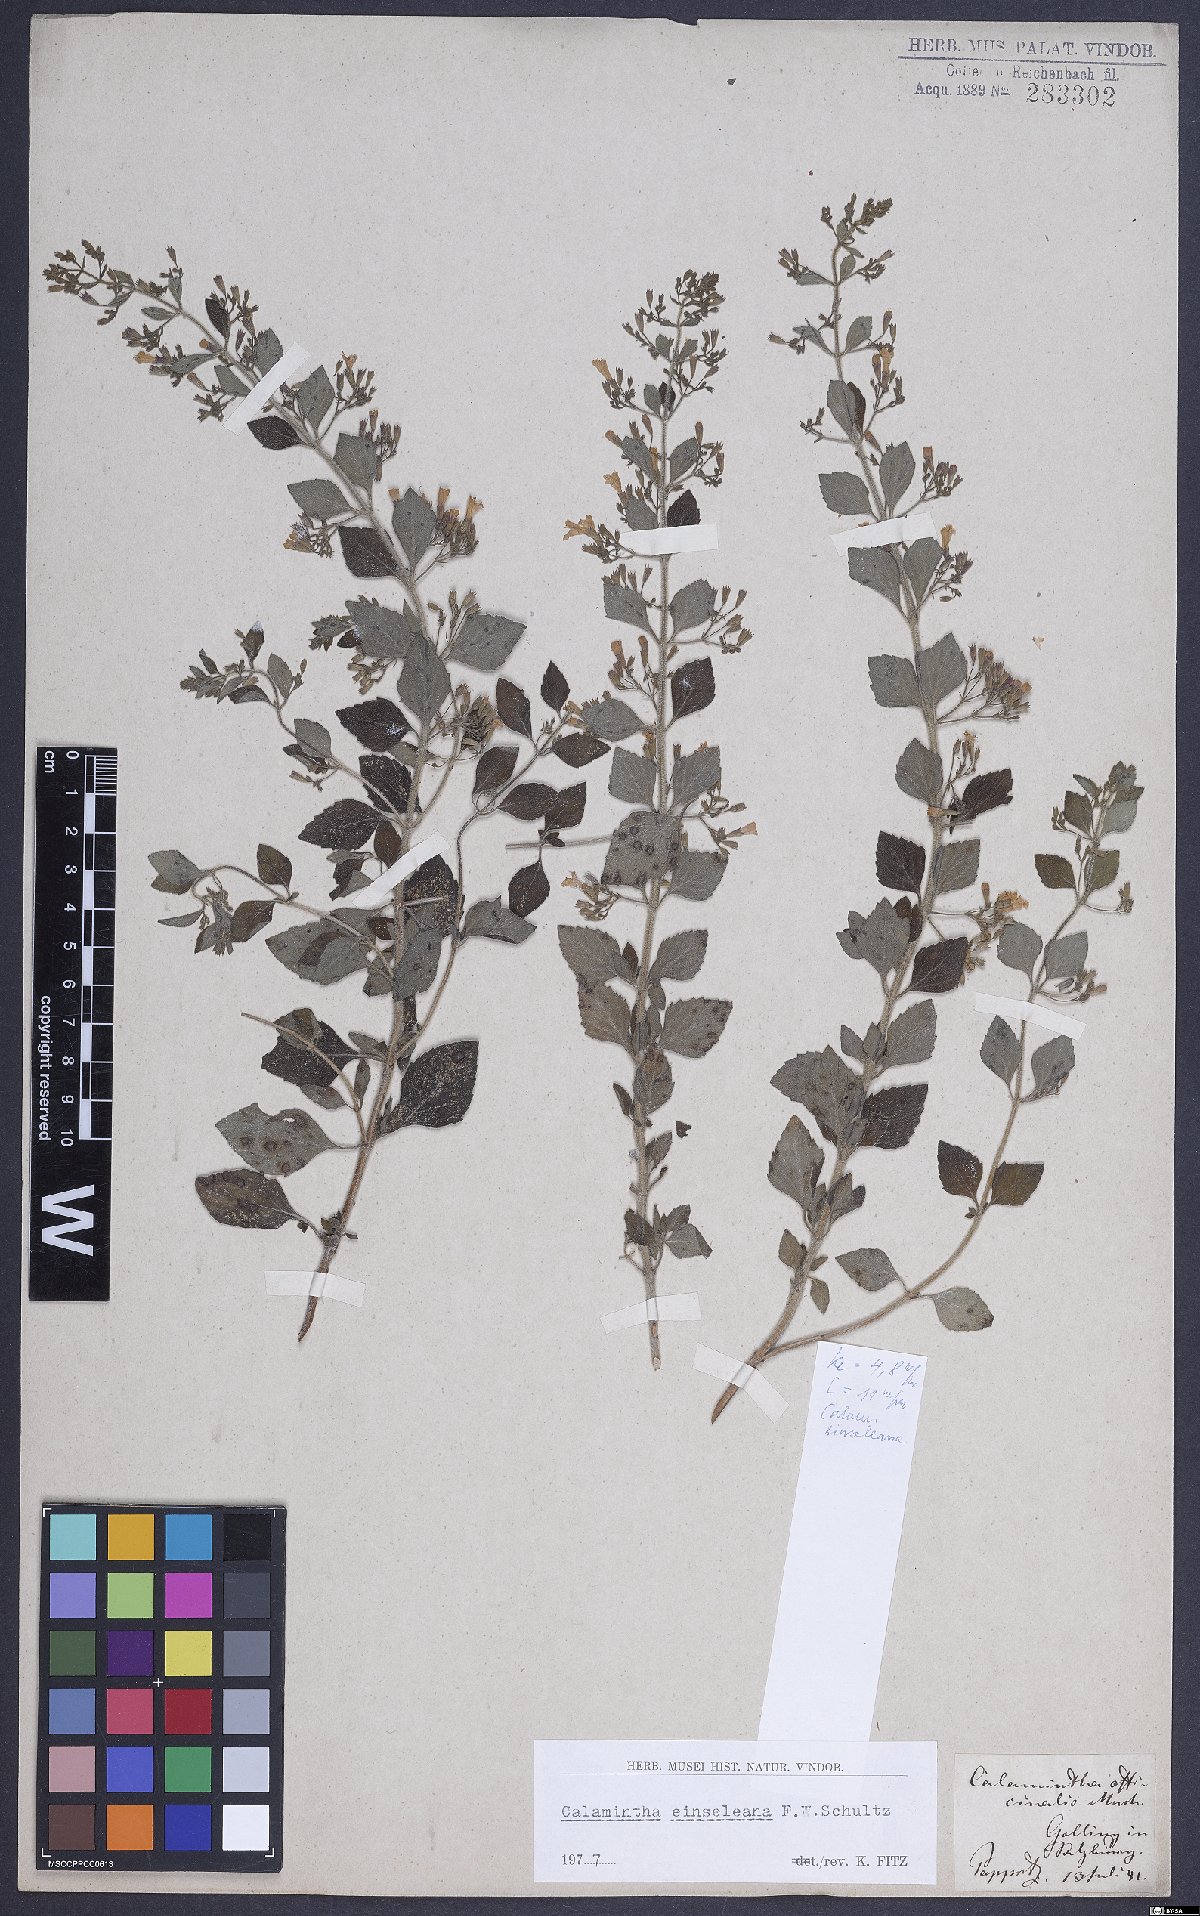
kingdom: Plantae
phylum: Tracheophyta
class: Magnoliopsida
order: Lamiales
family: Lamiaceae
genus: Clinopodium
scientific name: Clinopodium nepeta
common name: Lesser calamint
